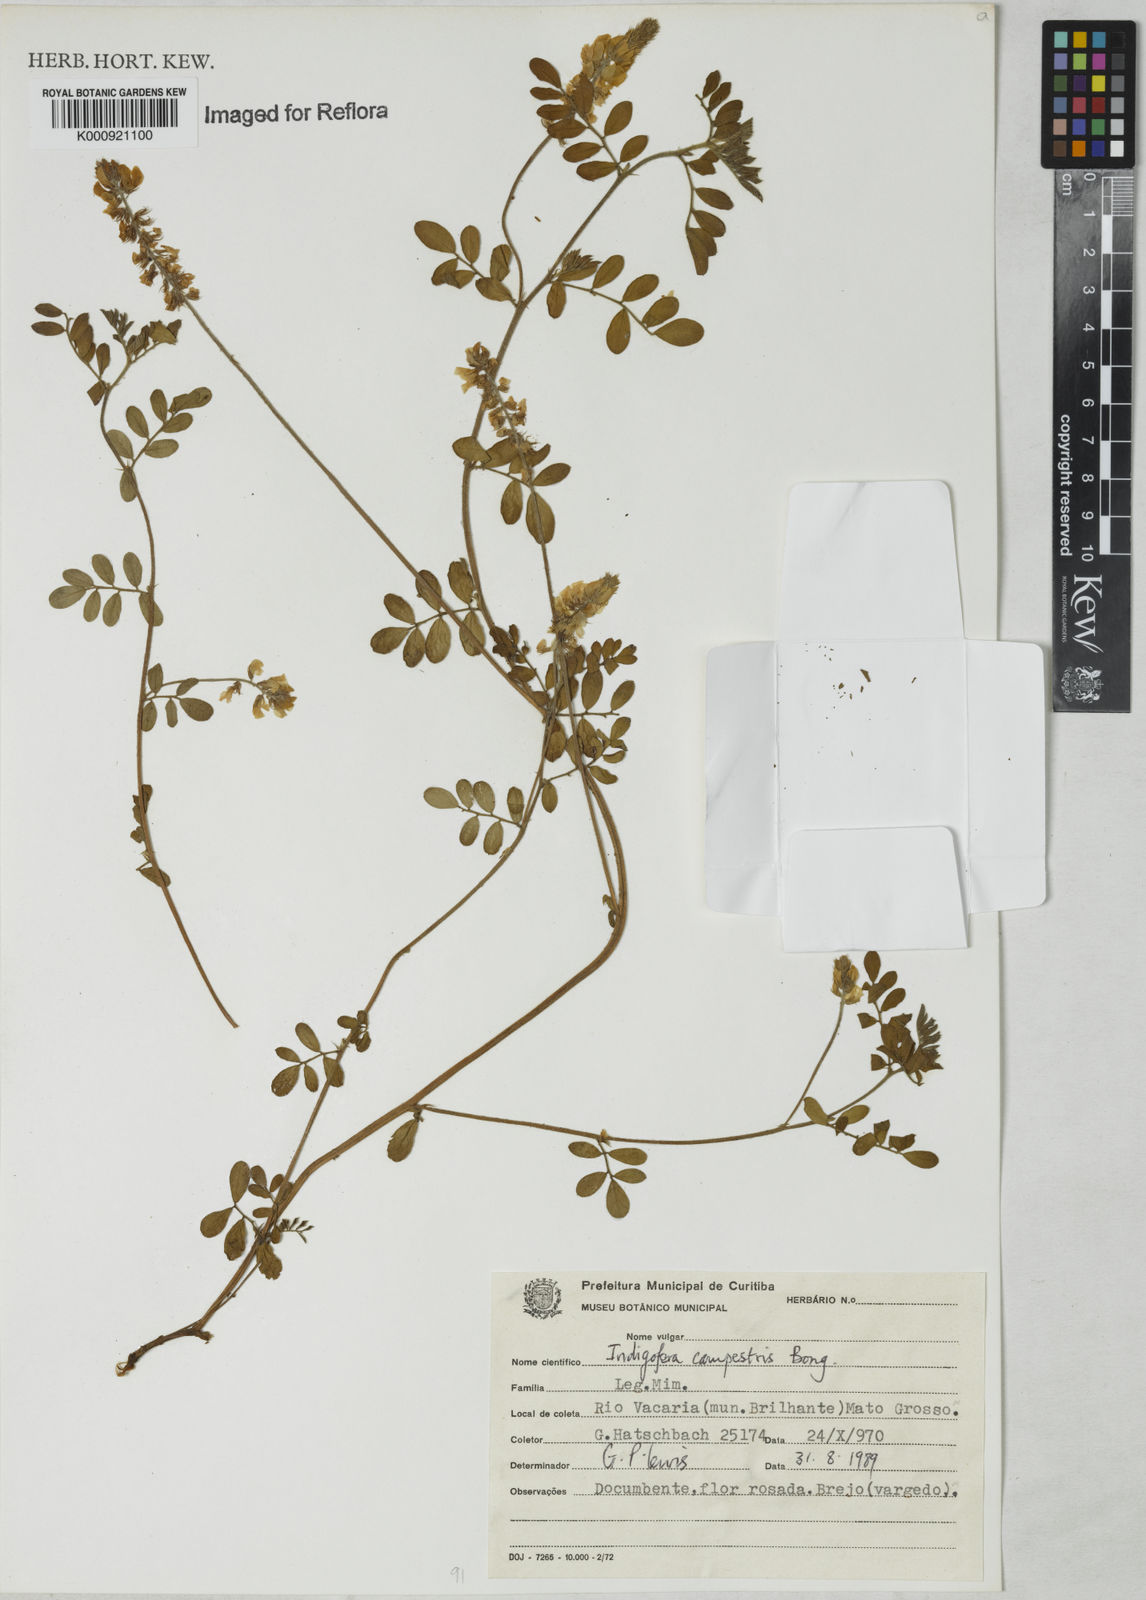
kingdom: Plantae
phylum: Tracheophyta
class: Magnoliopsida
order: Fabales
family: Fabaceae
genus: Indigofera
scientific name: Indigofera
